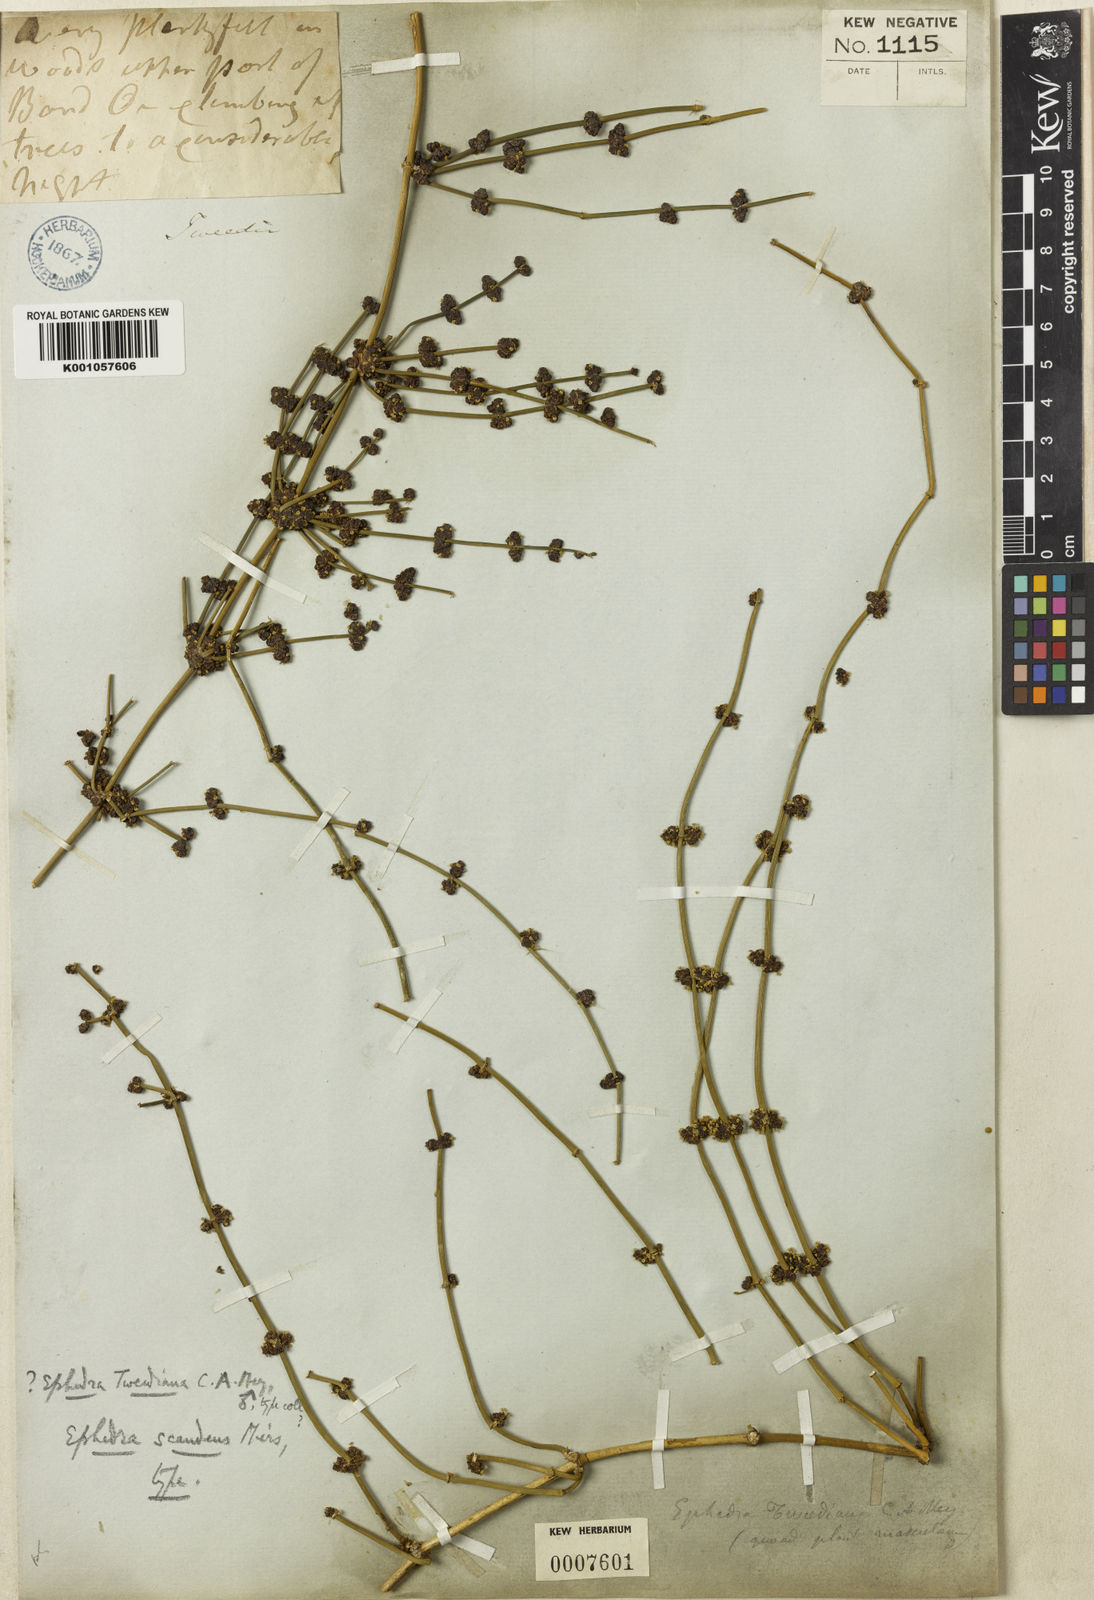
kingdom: Plantae
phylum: Tracheophyta
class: Gnetopsida
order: Ephedrales
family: Ephedraceae
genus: Ephedra
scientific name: Ephedra tweedieana
